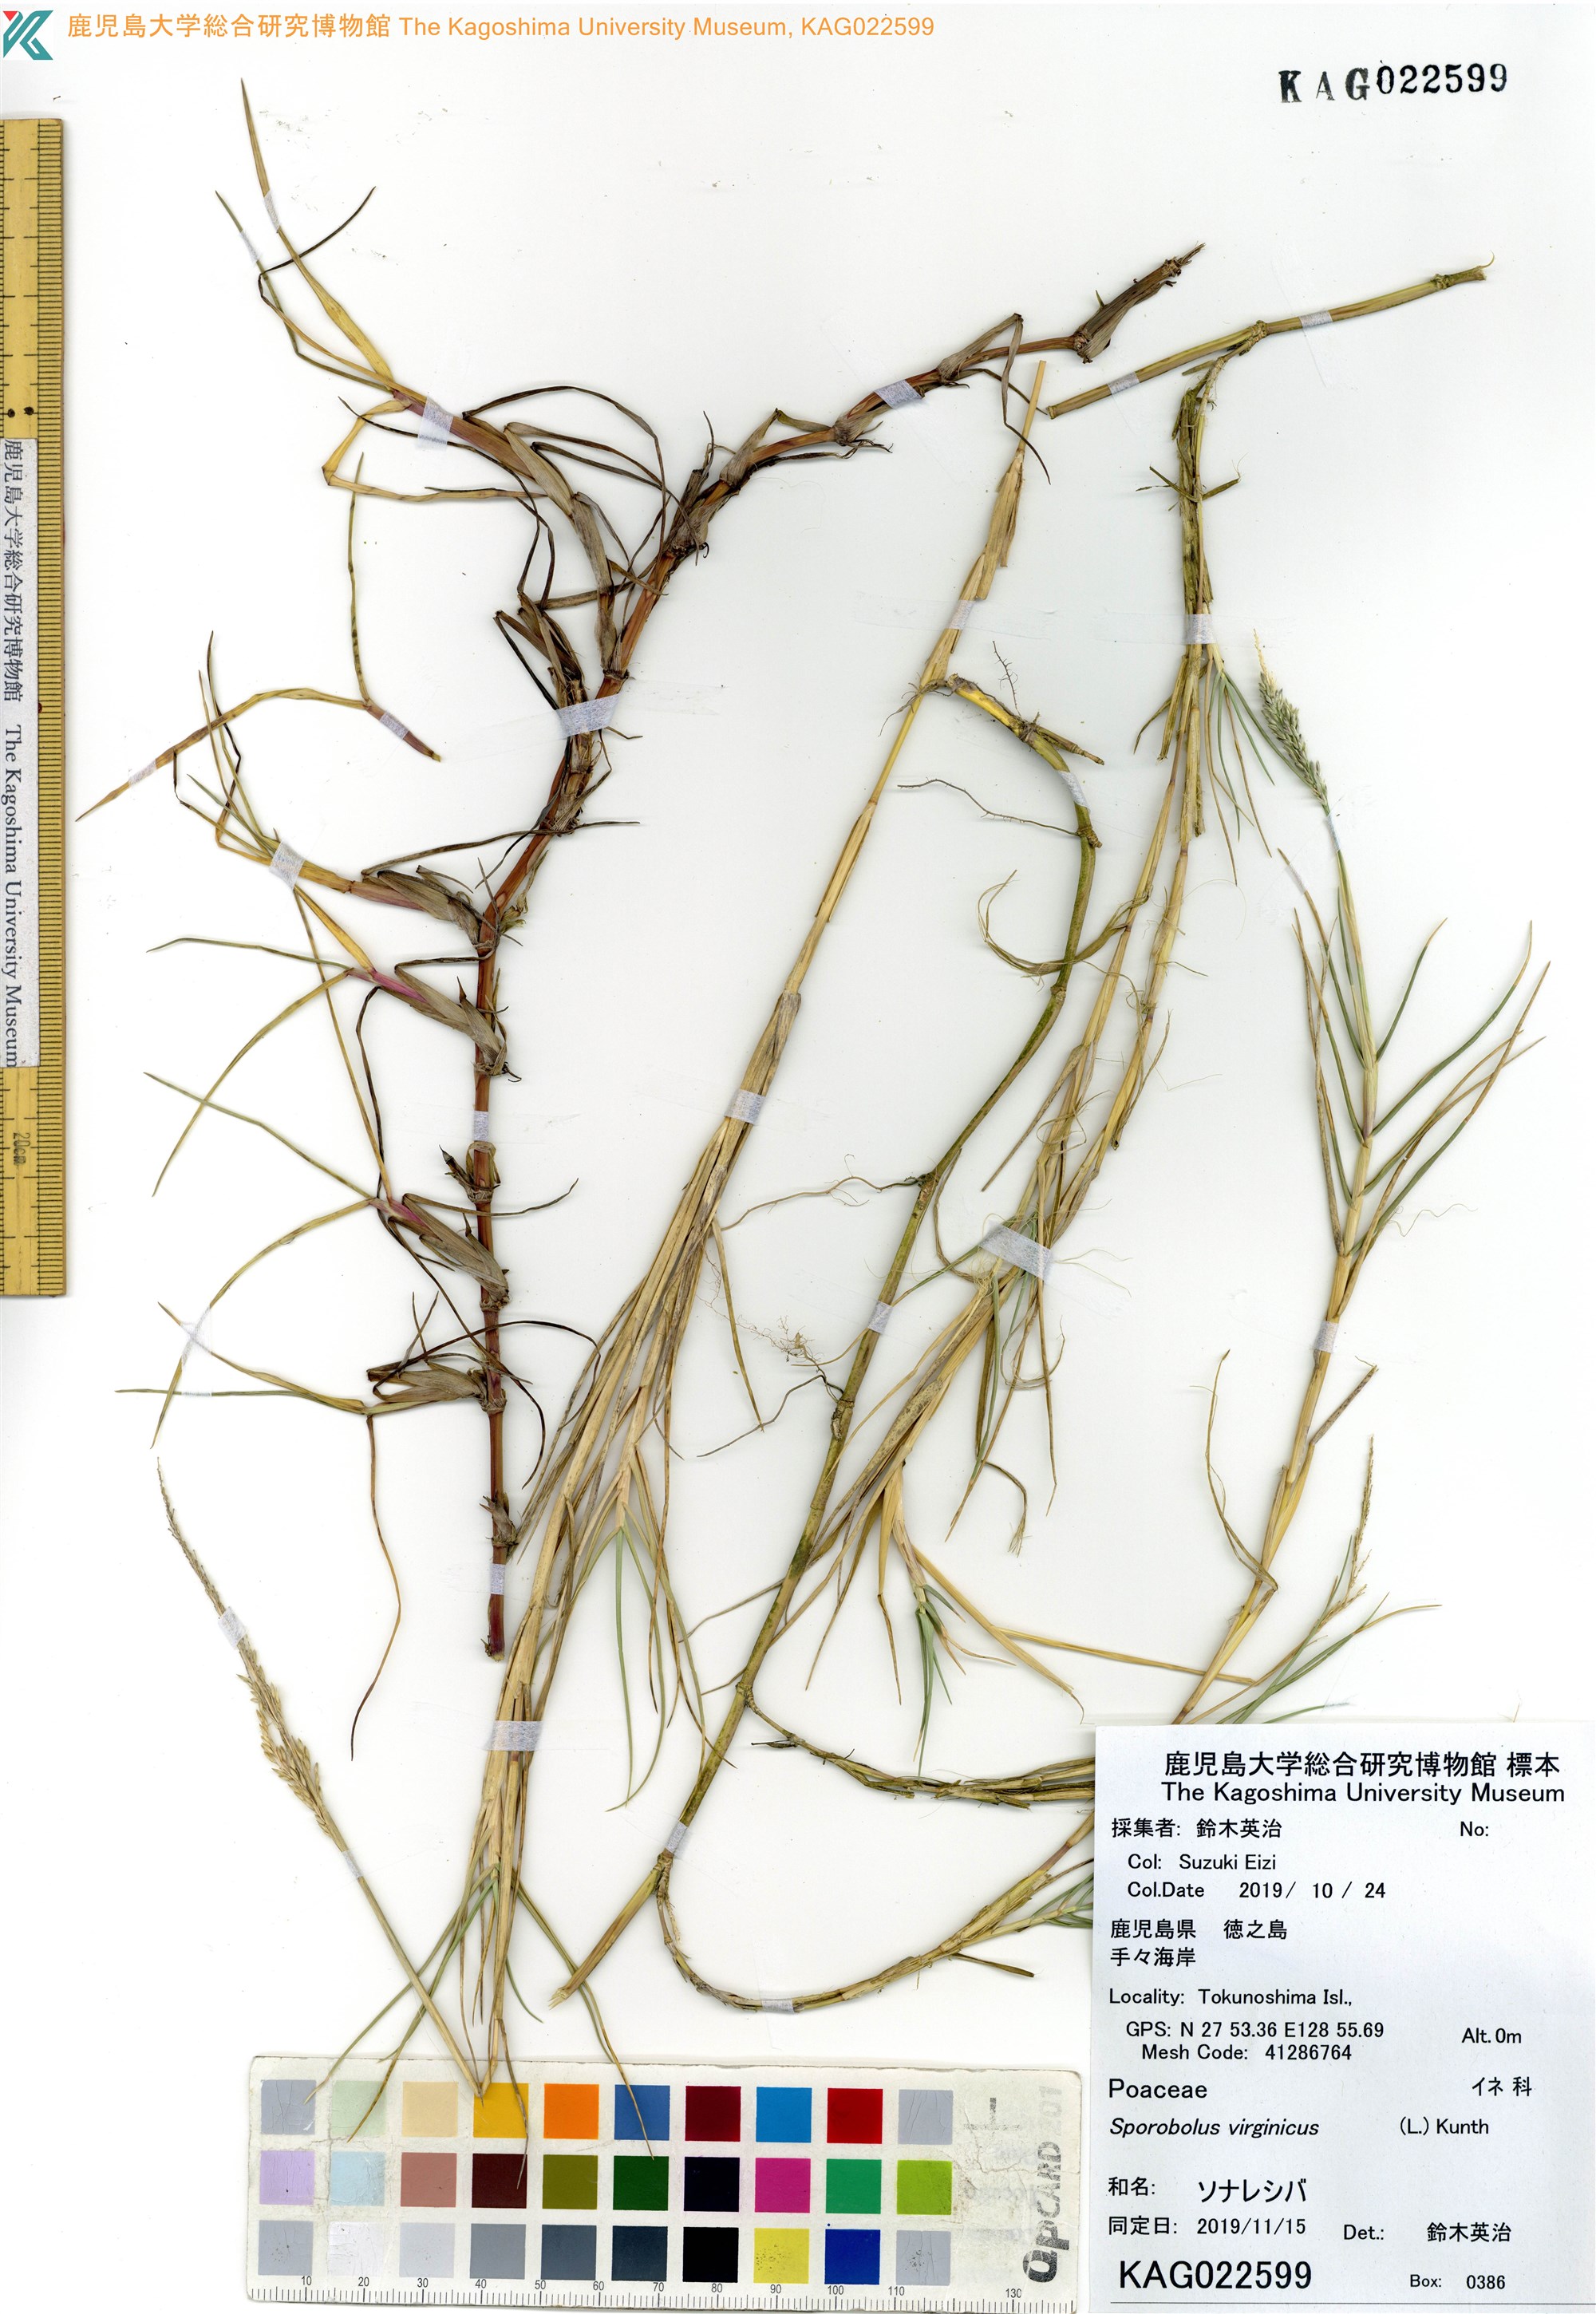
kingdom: Plantae
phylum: Tracheophyta
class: Liliopsida
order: Poales
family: Poaceae
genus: Sporobolus
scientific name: Sporobolus virginicus
